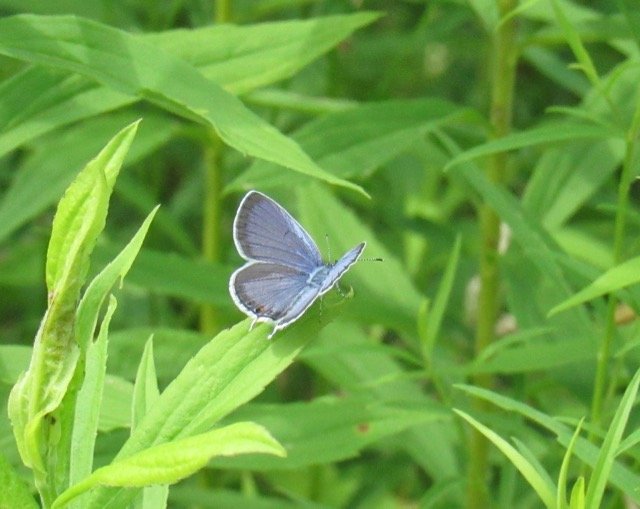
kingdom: Animalia
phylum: Arthropoda
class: Insecta
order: Lepidoptera
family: Lycaenidae
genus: Elkalyce
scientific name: Elkalyce comyntas
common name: Eastern Tailed-Blue
